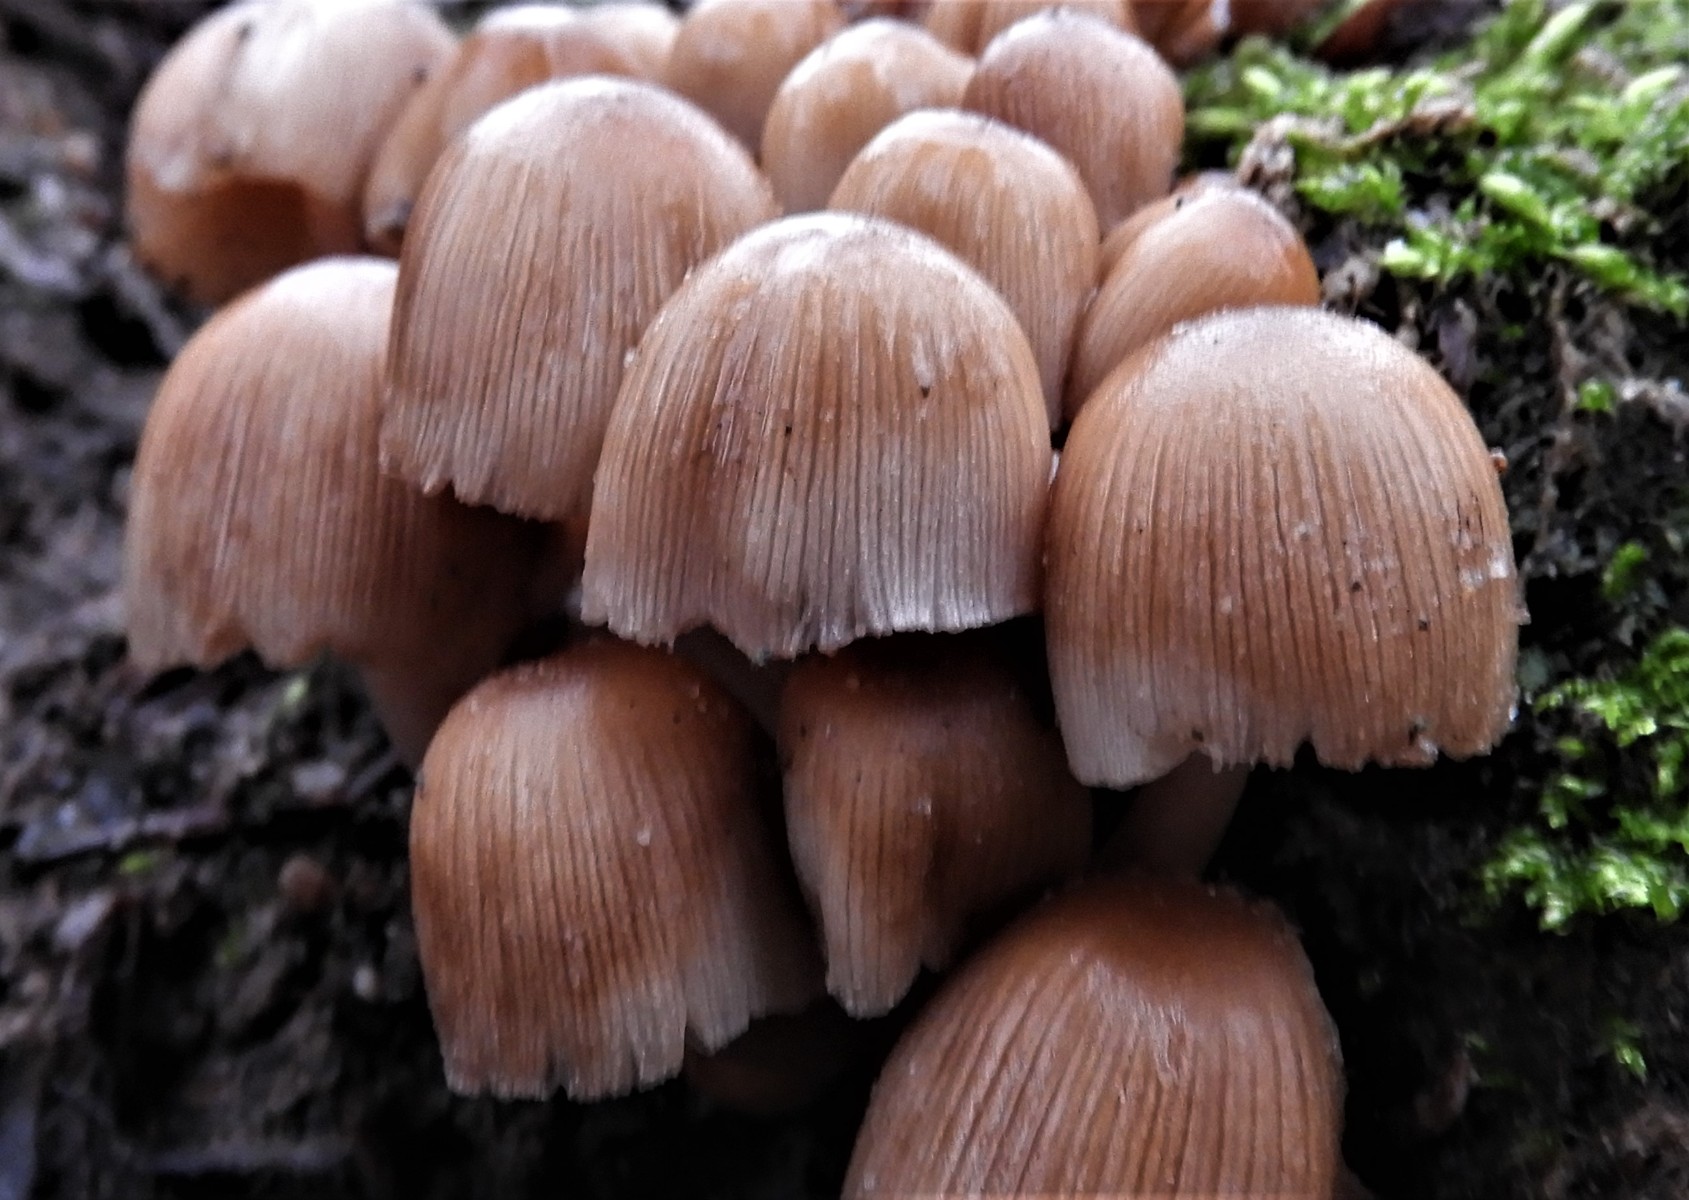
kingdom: Fungi
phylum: Basidiomycota
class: Agaricomycetes
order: Agaricales
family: Psathyrellaceae
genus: Coprinellus
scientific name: Coprinellus micaceus
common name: glimmer-blækhat
